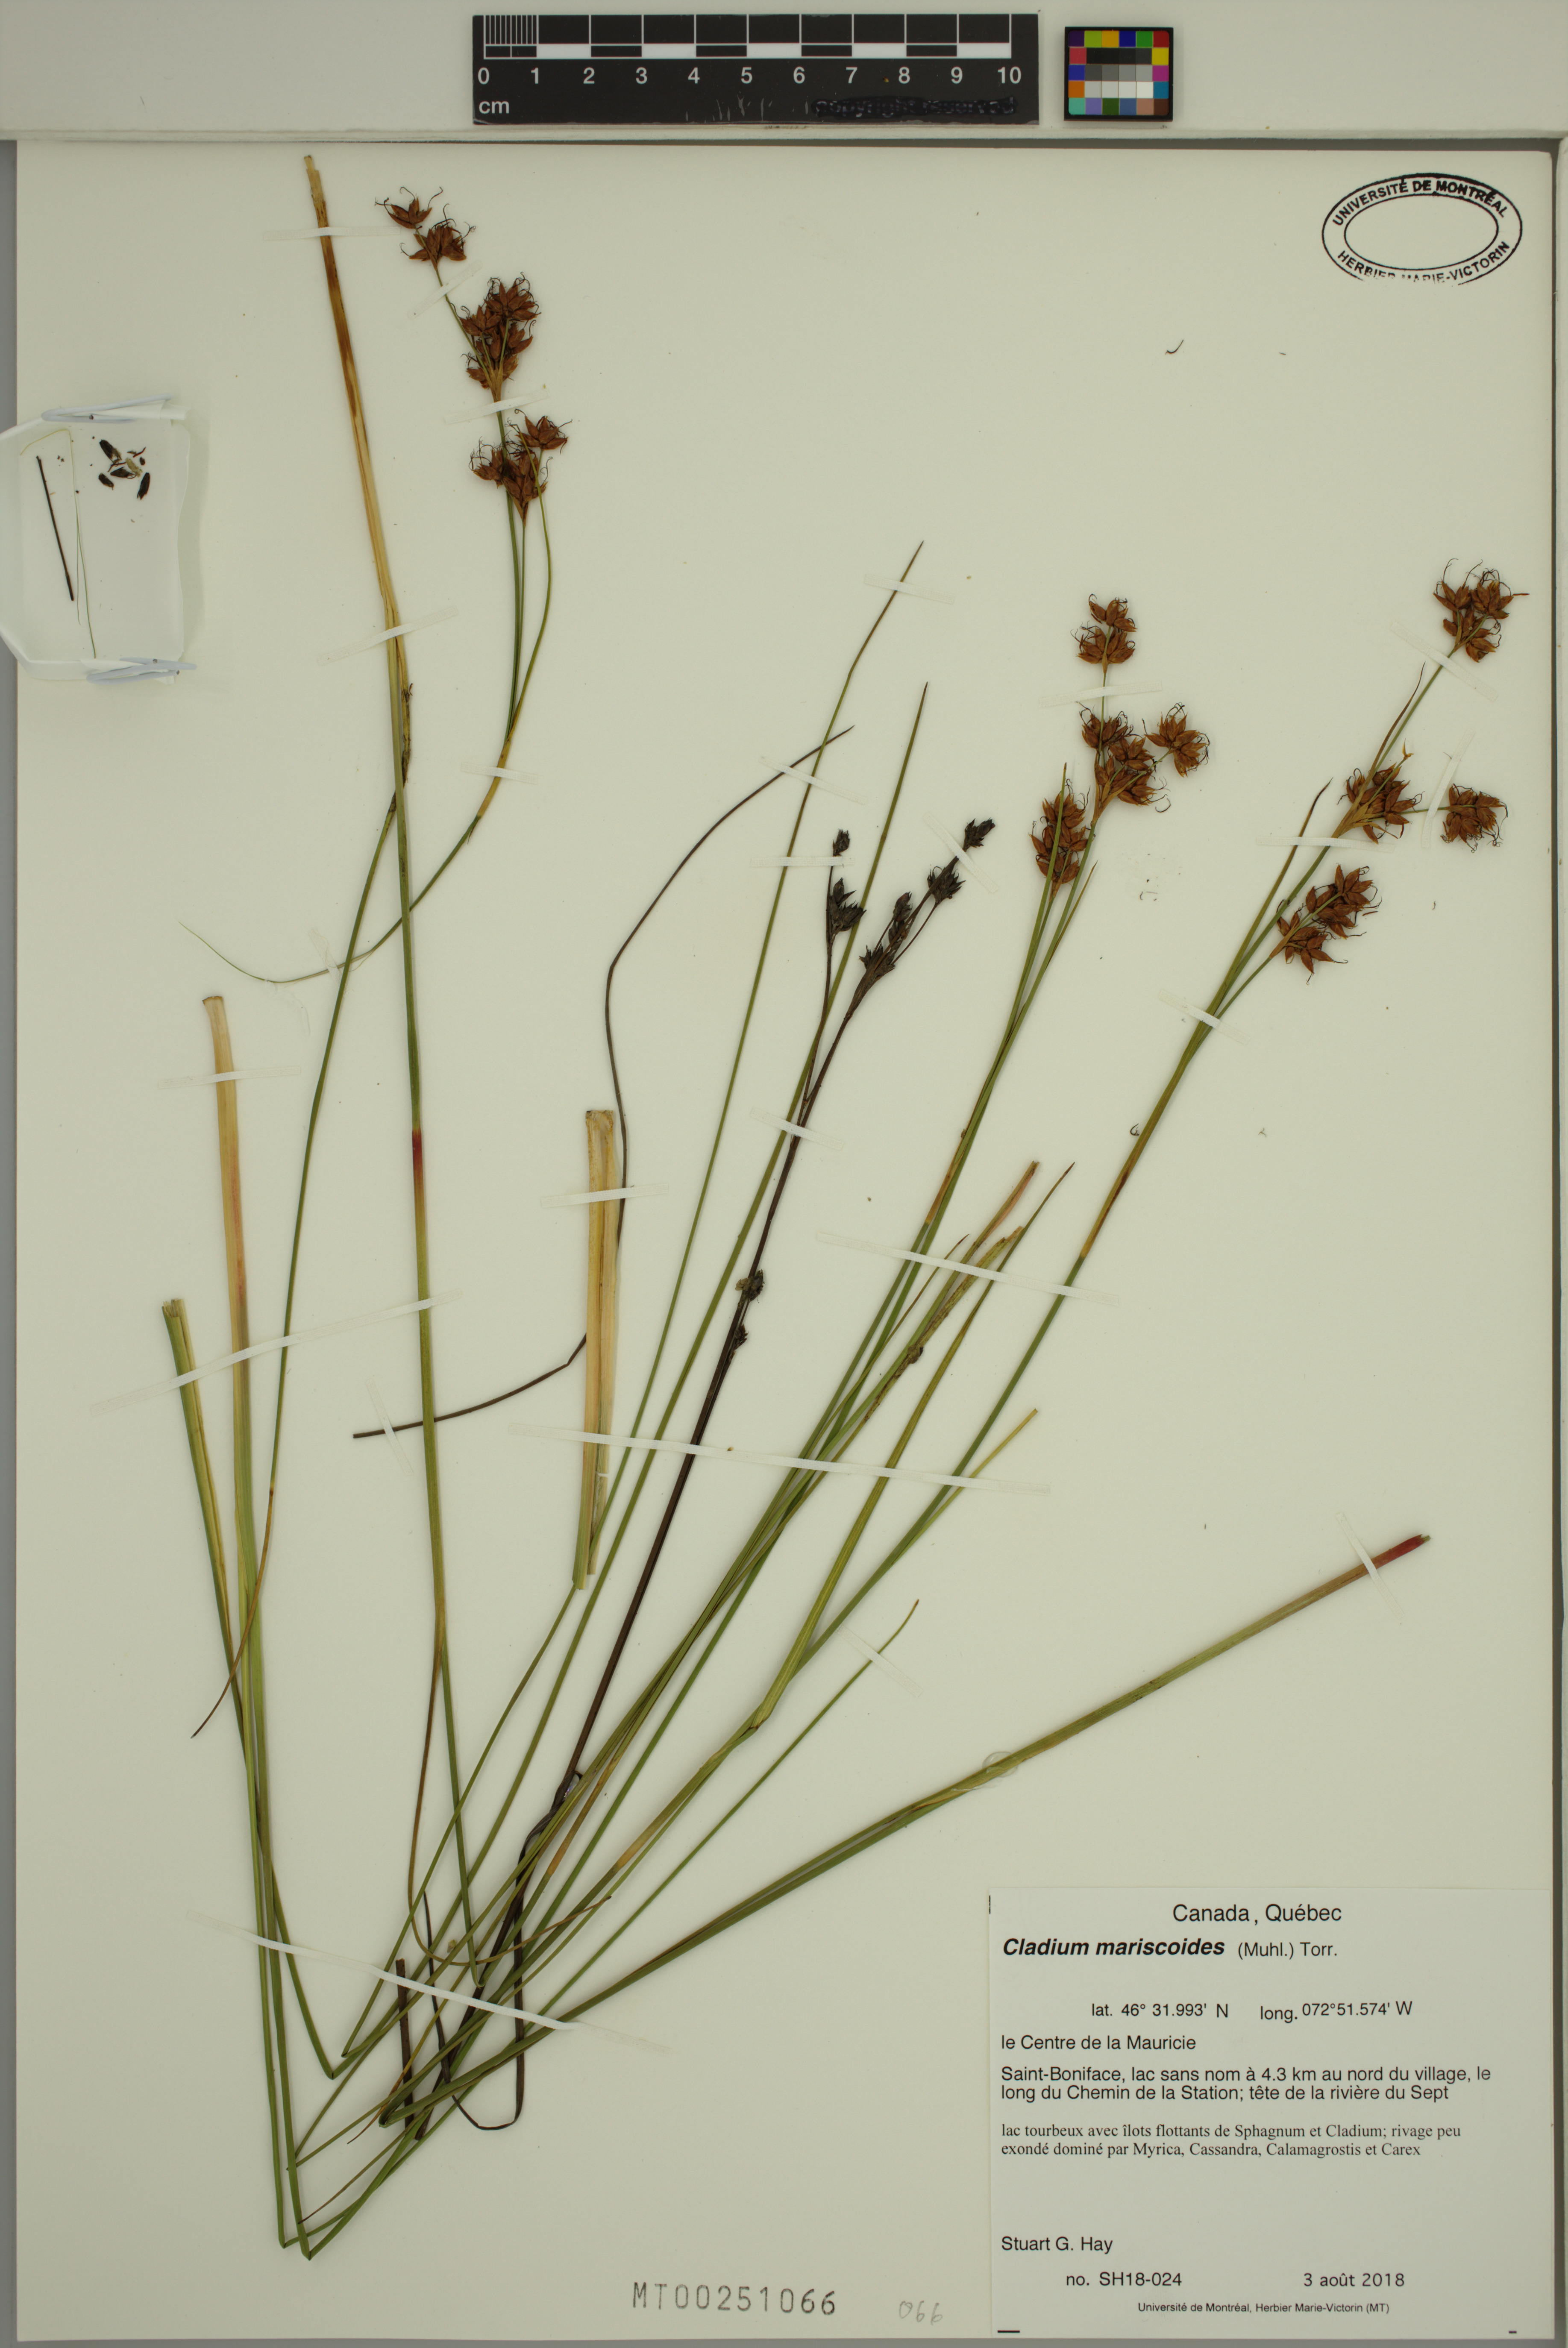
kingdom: Plantae
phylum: Tracheophyta
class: Liliopsida
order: Poales
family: Cyperaceae
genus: Cladium
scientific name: Cladium mariscoides
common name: Smooth sawgrass
